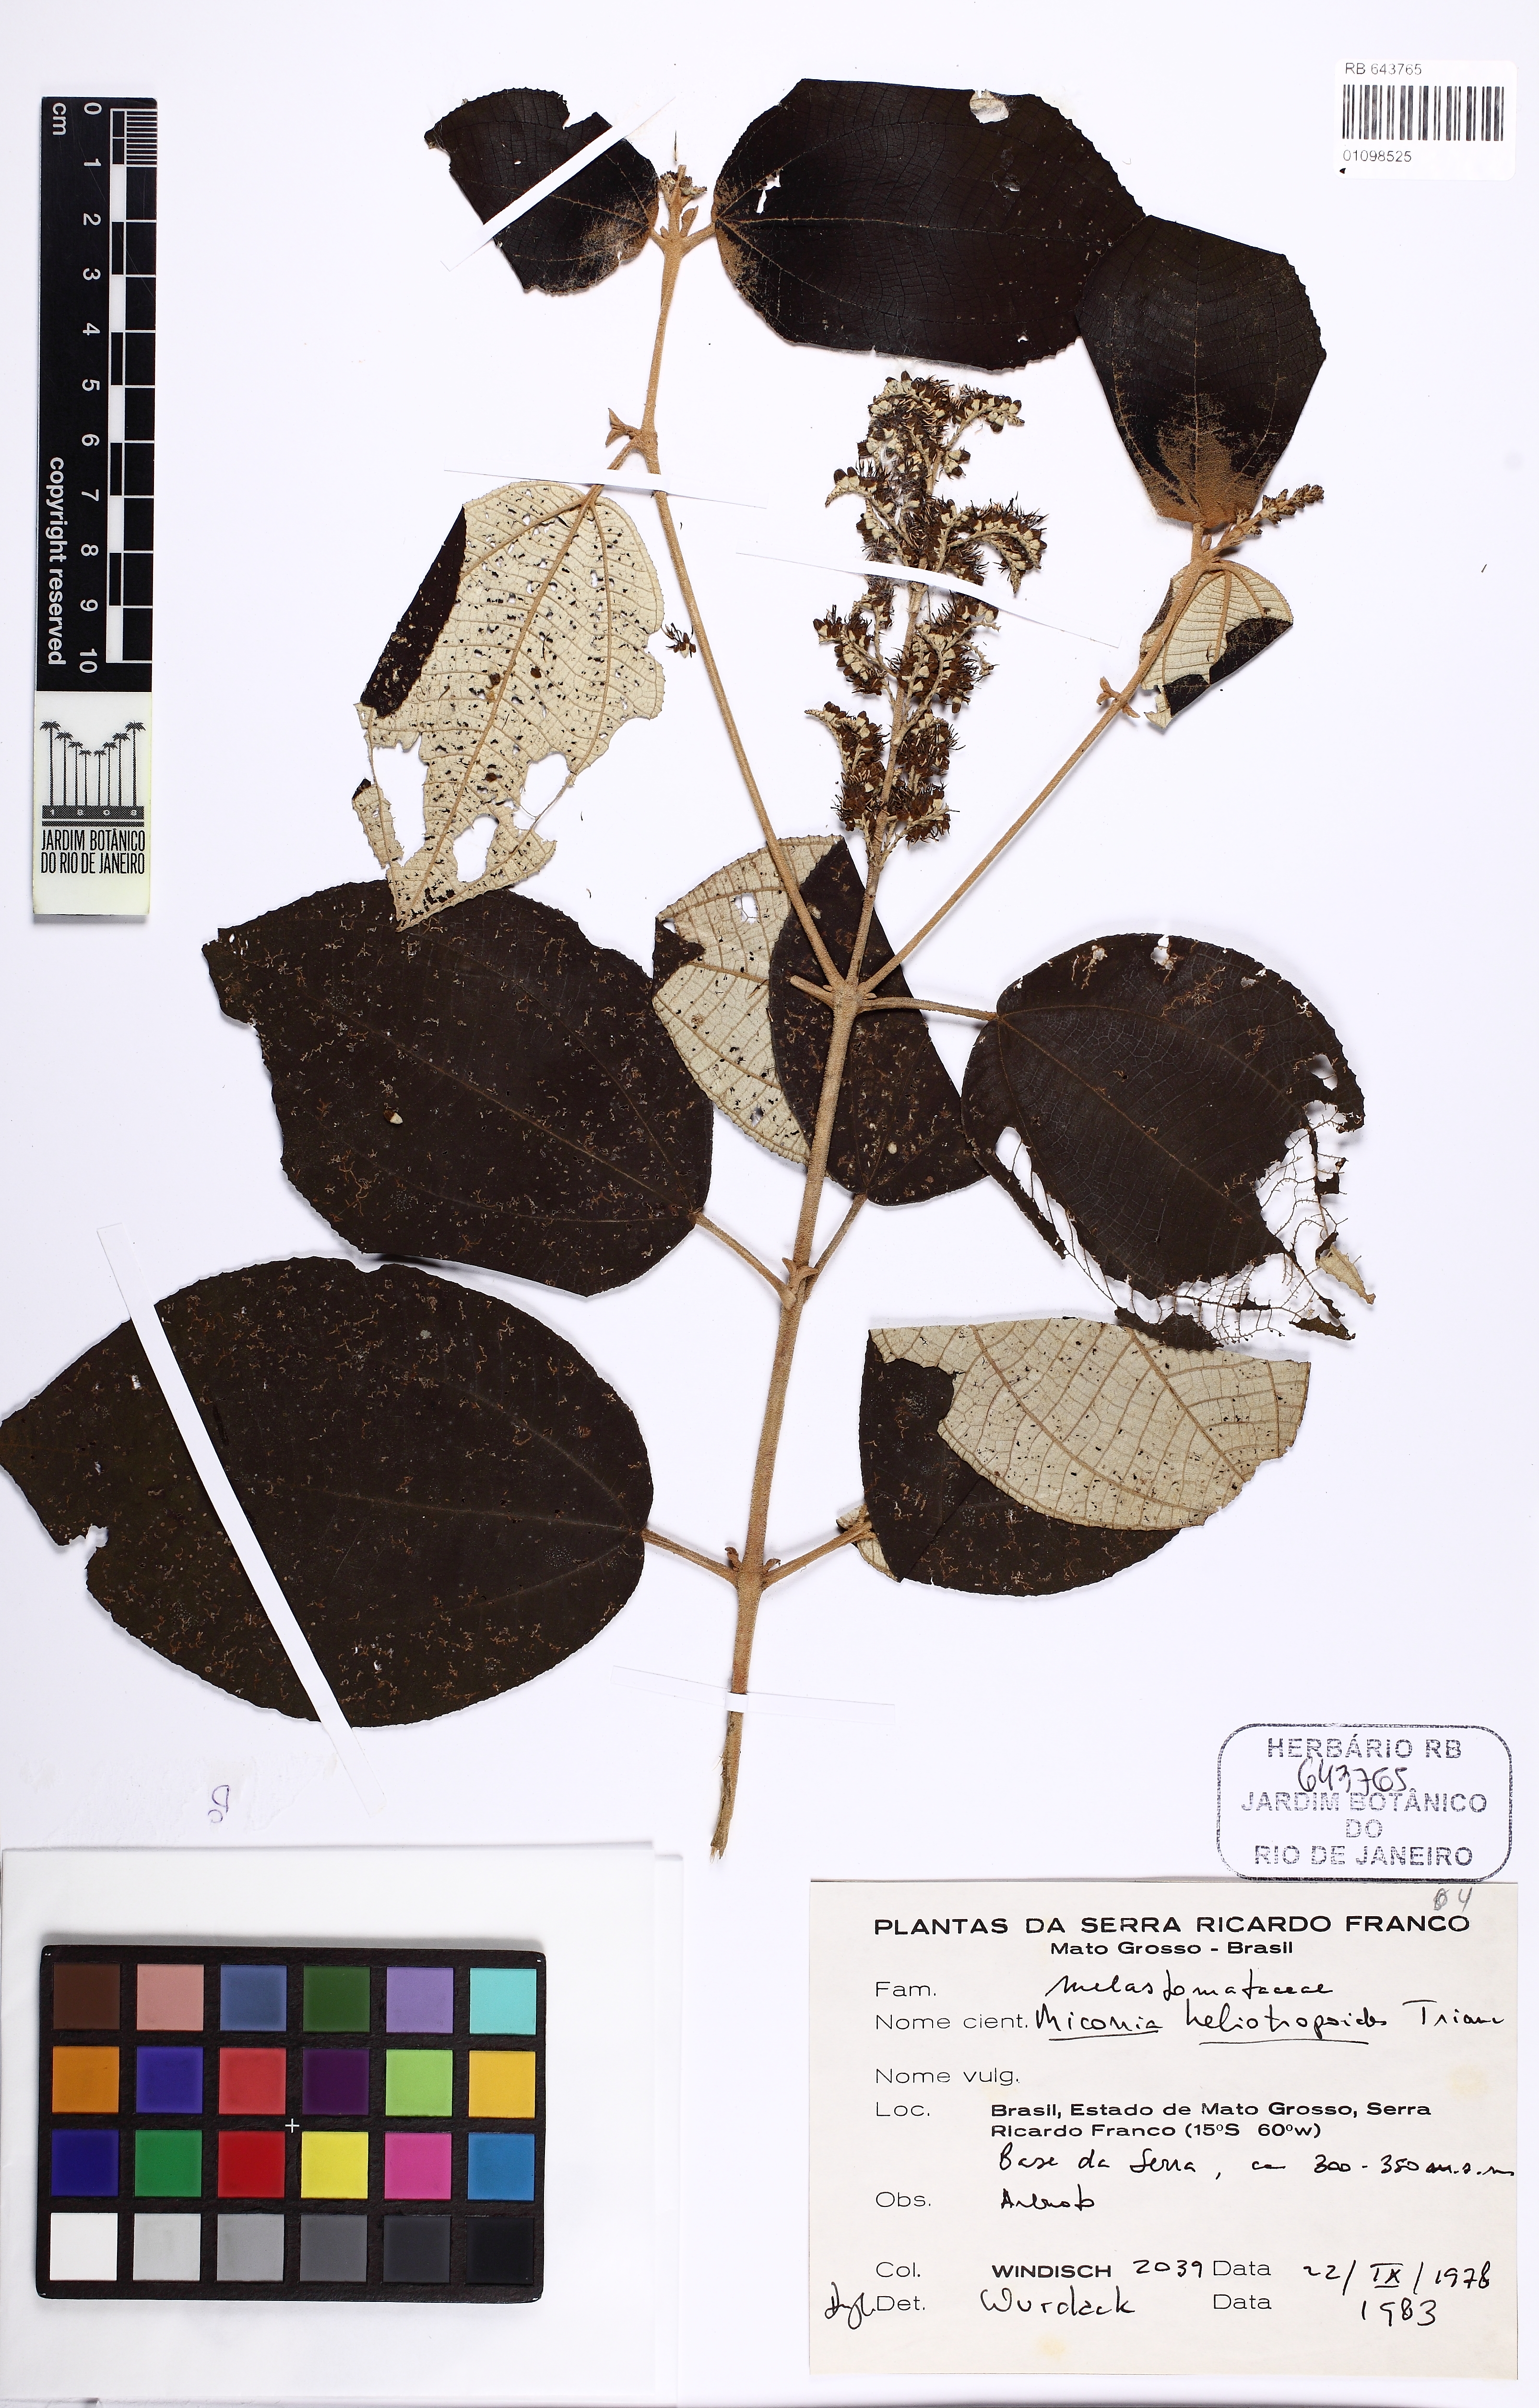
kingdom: Plantae
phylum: Tracheophyta
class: Magnoliopsida
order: Myrtales
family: Melastomataceae
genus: Miconia
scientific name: Miconia heliotropoides
